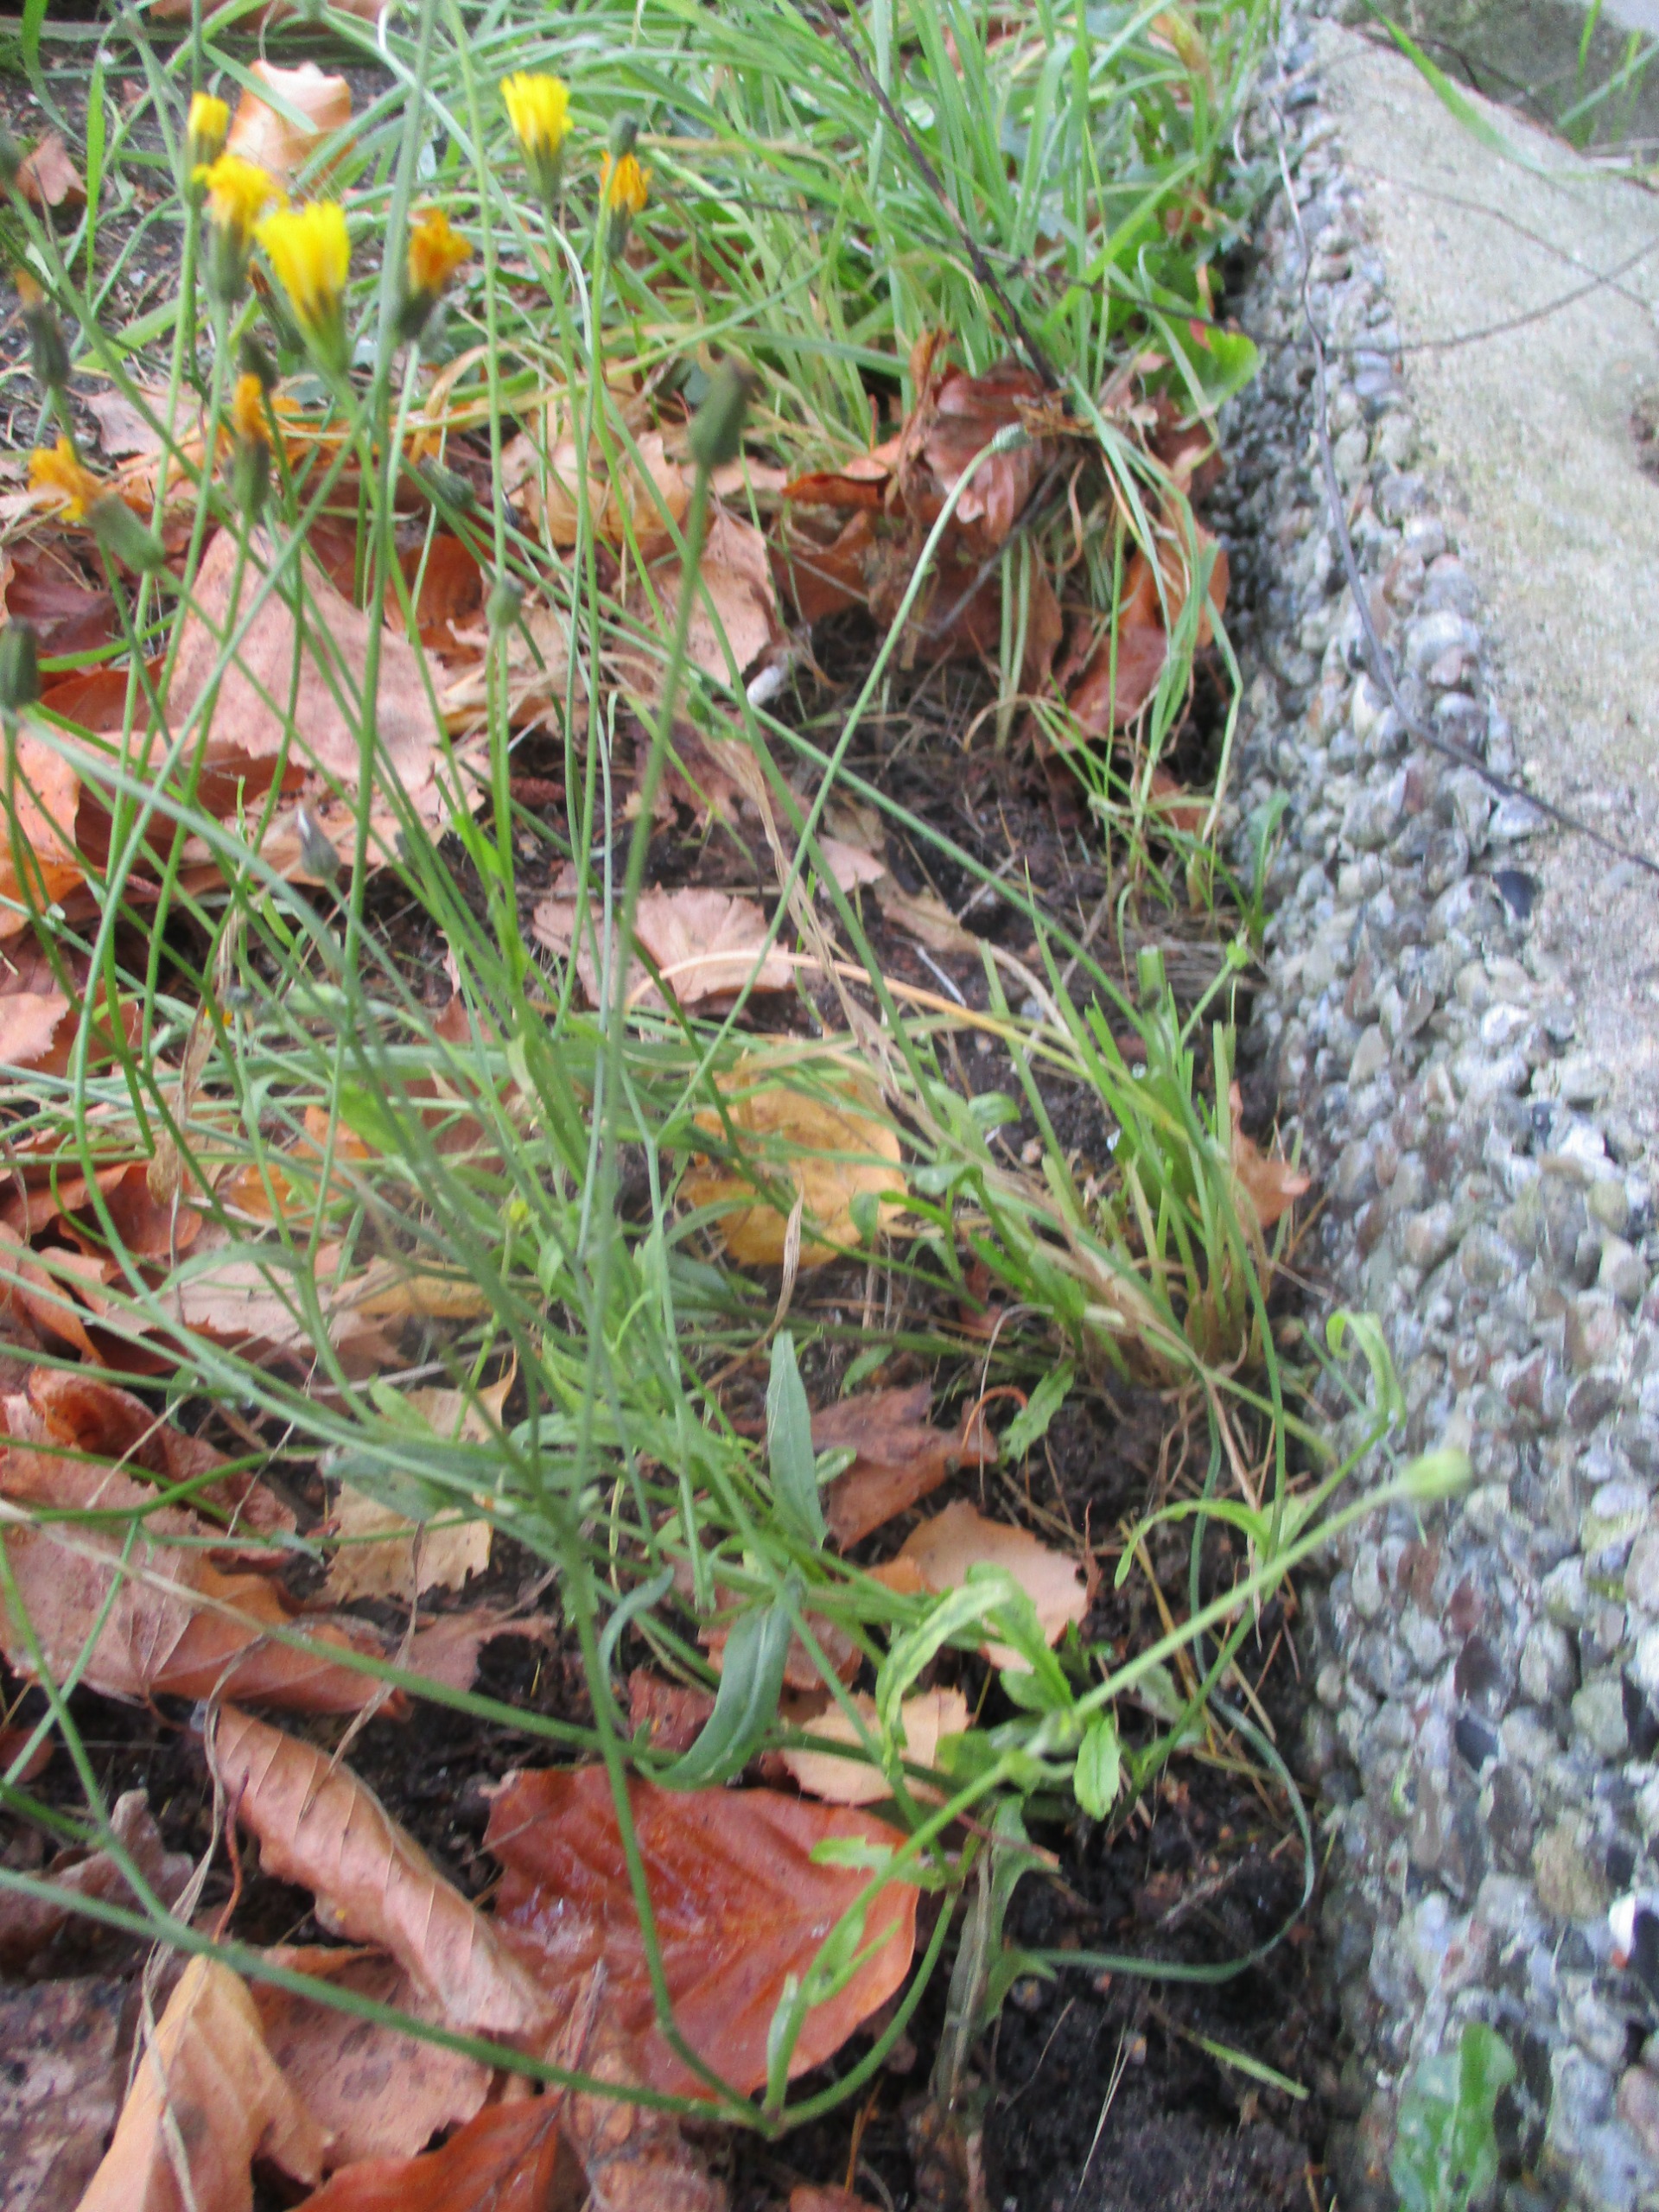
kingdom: Plantae
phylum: Tracheophyta
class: Magnoliopsida
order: Asterales
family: Asteraceae
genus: Crepis
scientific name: Crepis capillaris
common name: Grøn høgeskæg
